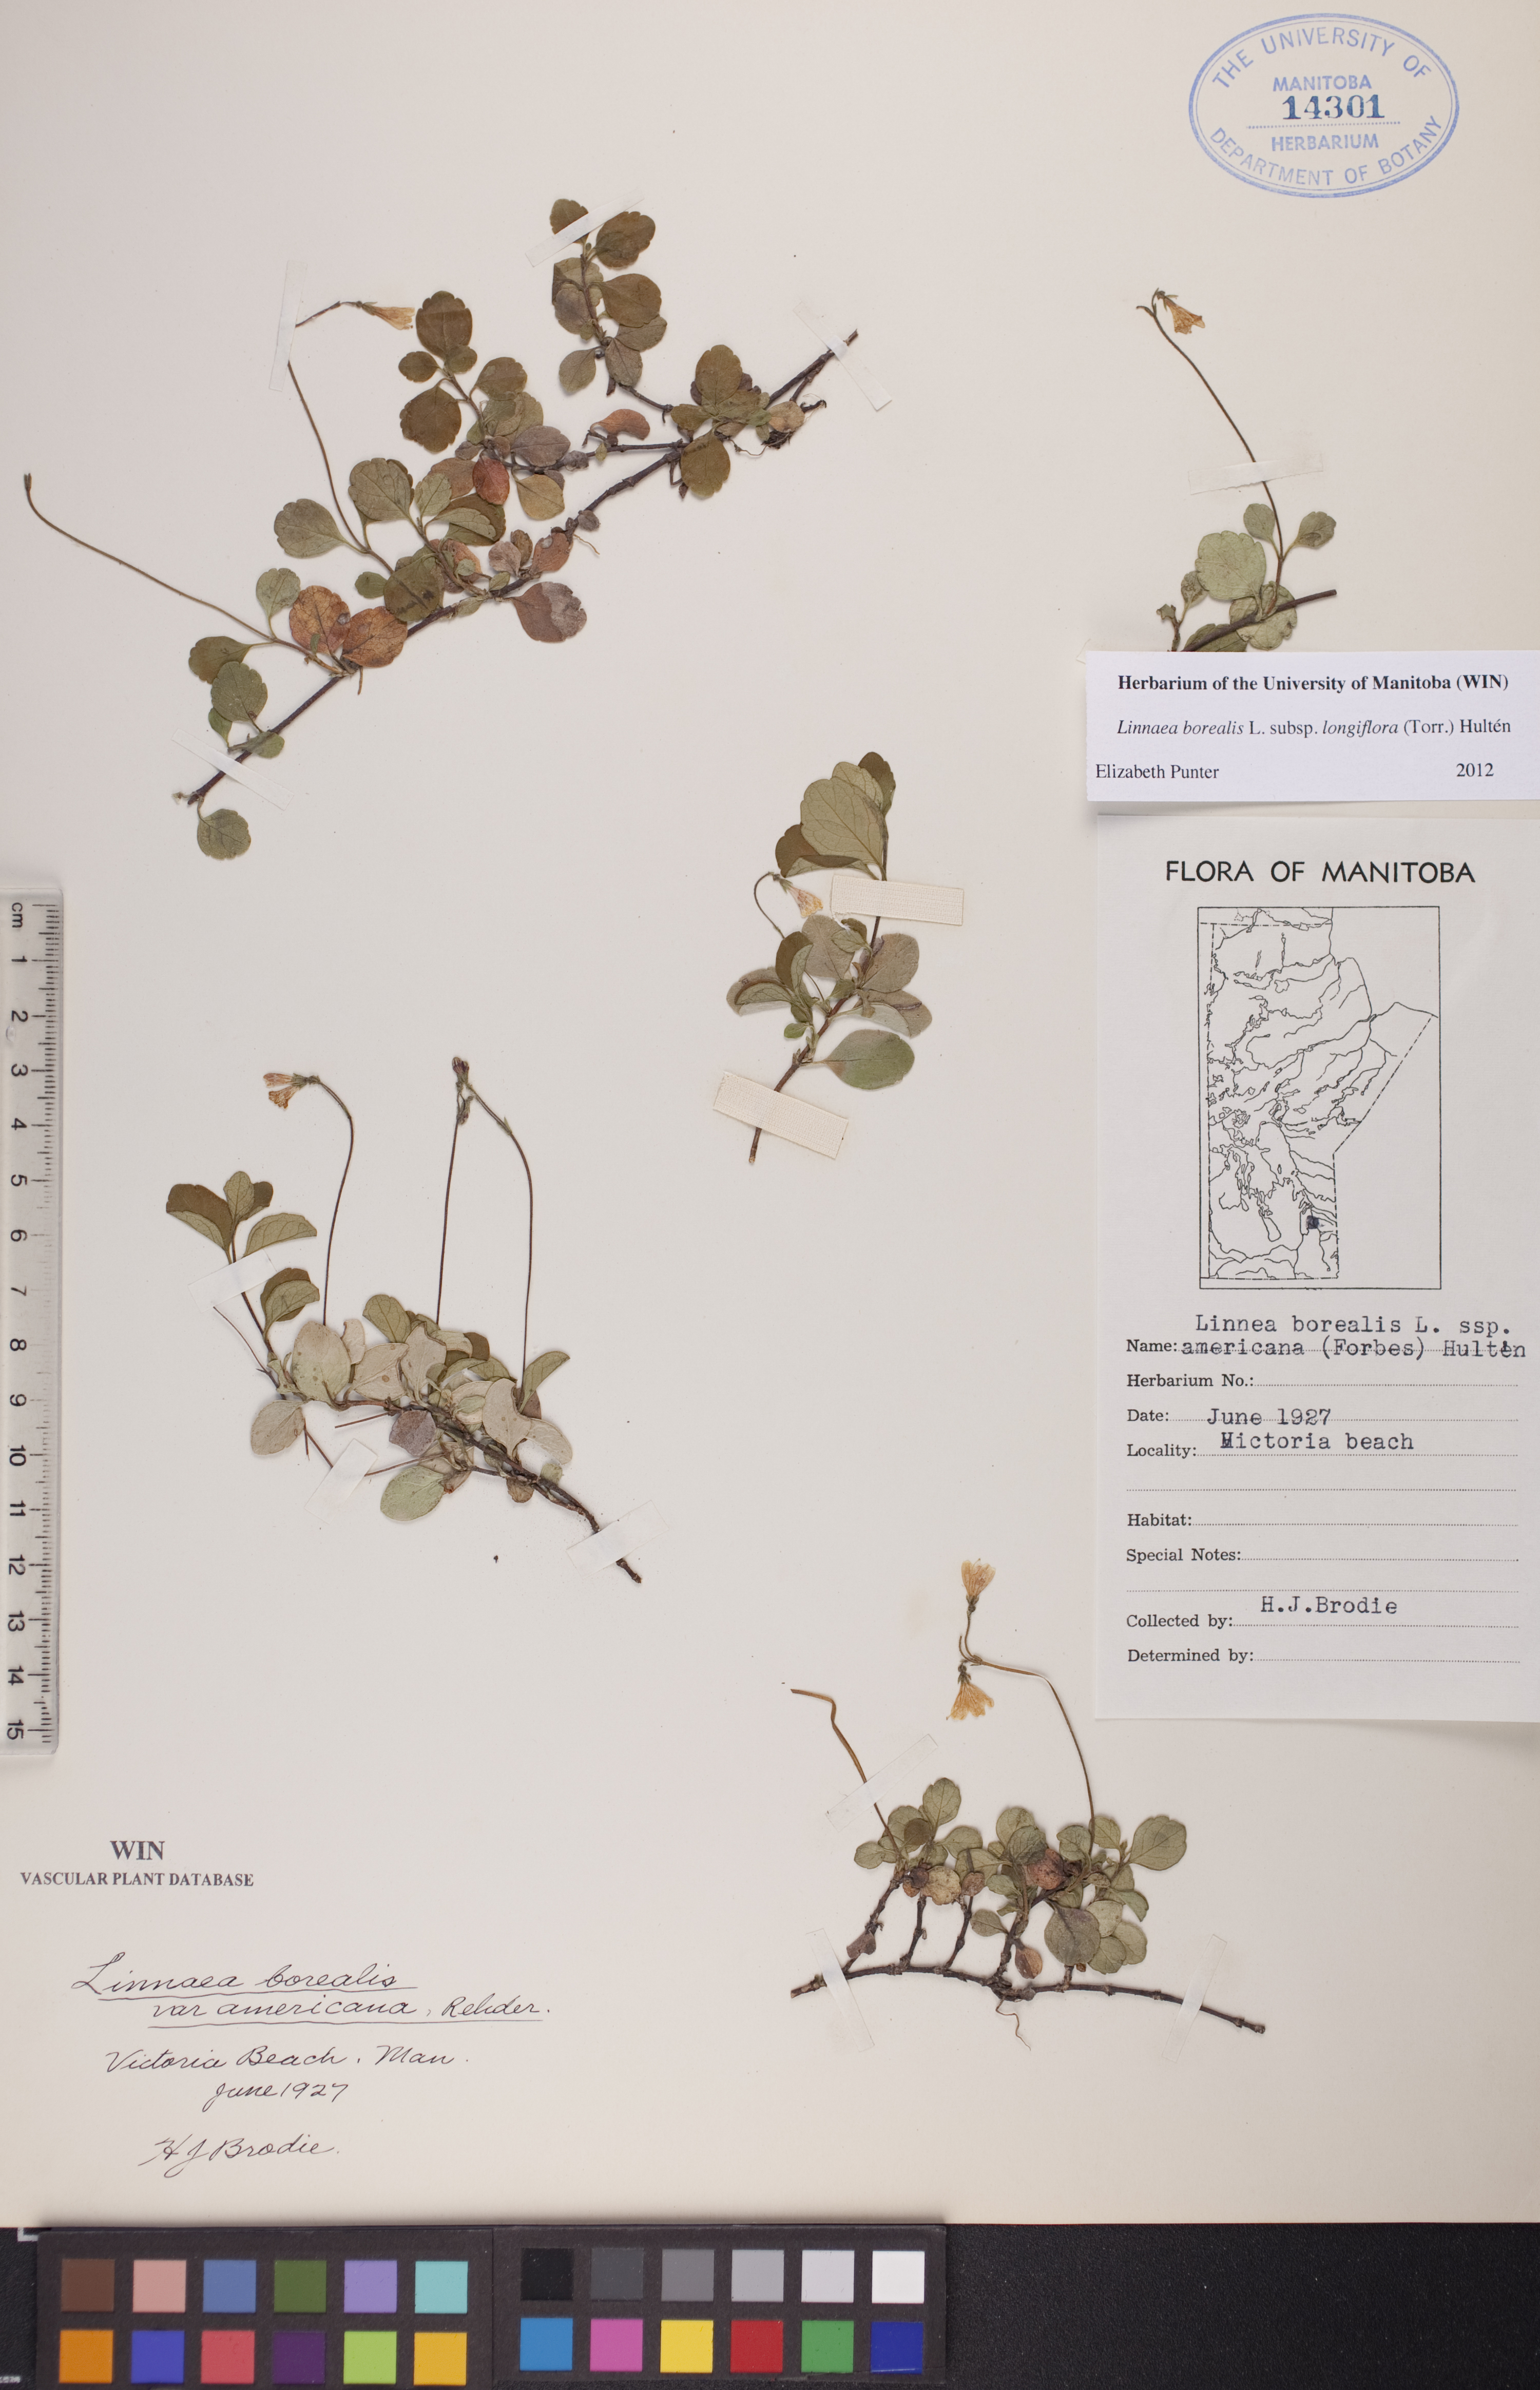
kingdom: Plantae
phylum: Tracheophyta
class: Magnoliopsida
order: Dipsacales
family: Caprifoliaceae
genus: Linnaea
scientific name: Linnaea borealis
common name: Twinflower
